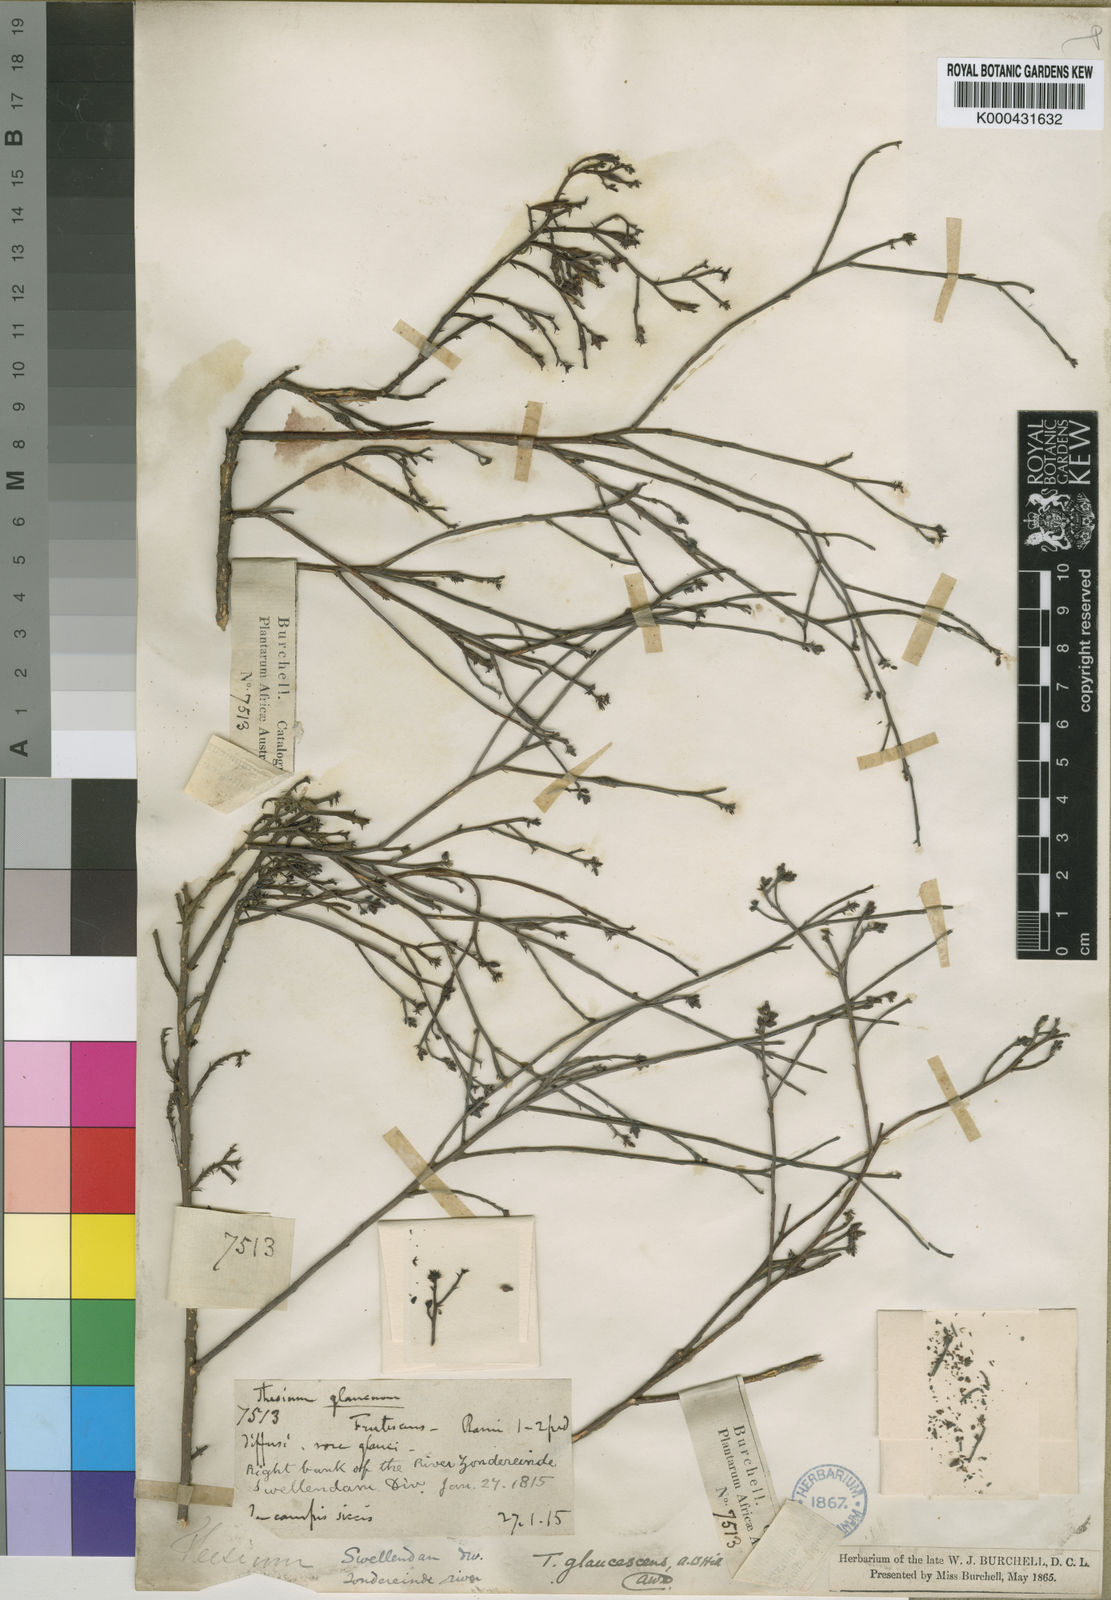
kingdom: Plantae
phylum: Tracheophyta
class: Magnoliopsida
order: Santalales
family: Thesiaceae
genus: Thesium
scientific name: Thesium glaucescens
